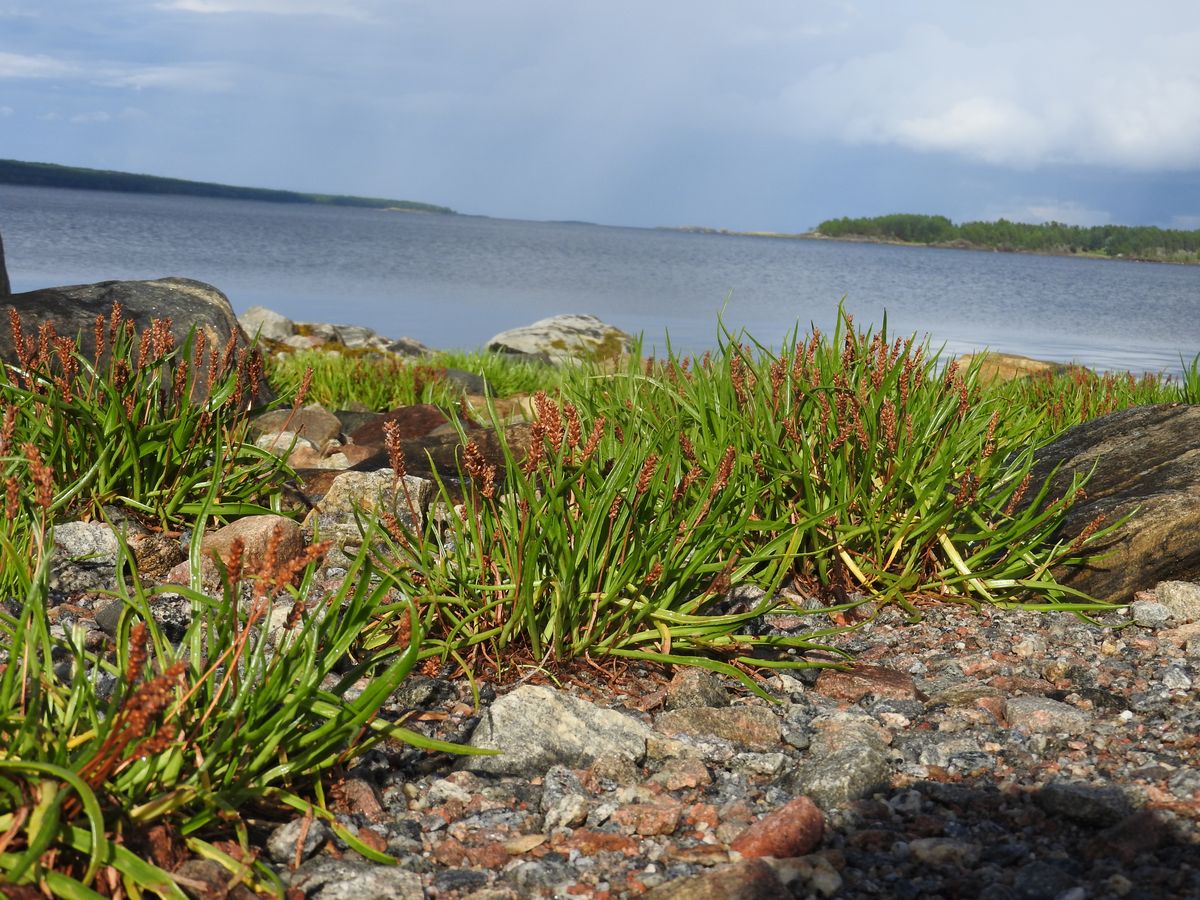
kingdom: Plantae
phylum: Tracheophyta
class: Magnoliopsida
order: Lamiales
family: Plantaginaceae
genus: Plantago
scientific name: Plantago maritima
